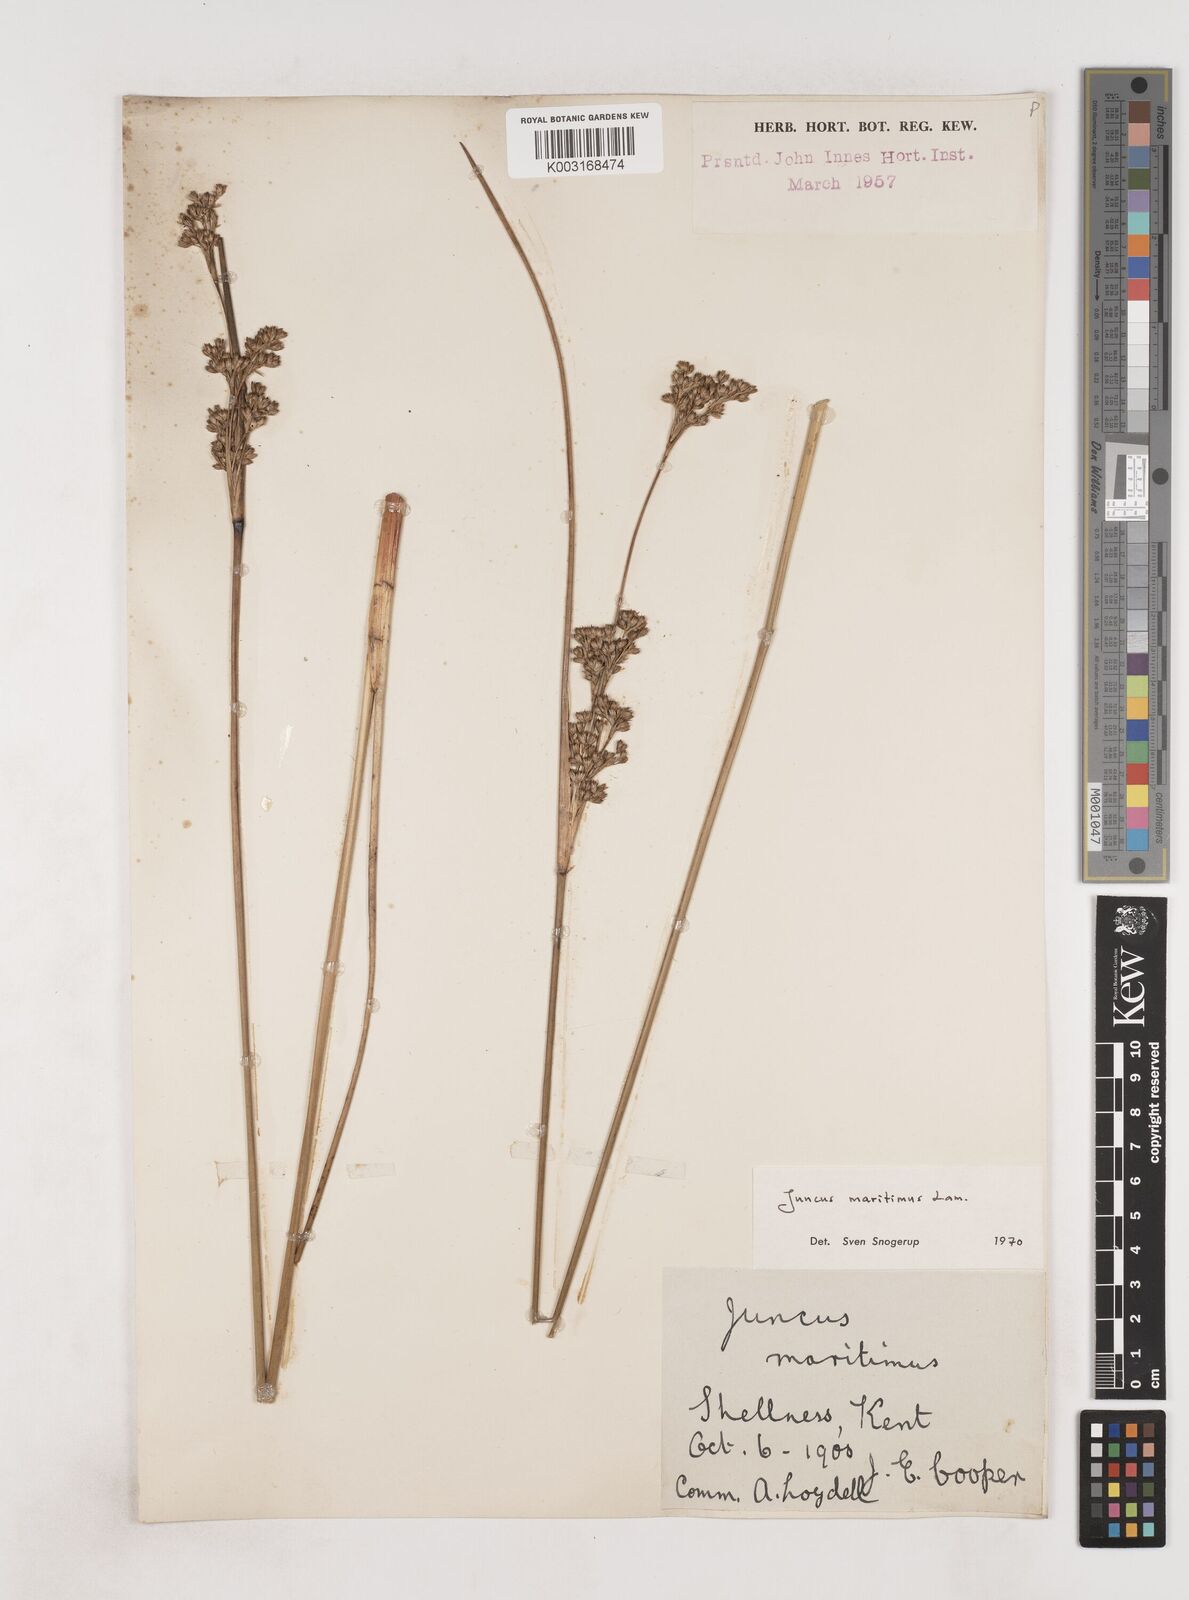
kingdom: Plantae
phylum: Tracheophyta
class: Liliopsida
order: Poales
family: Juncaceae
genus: Juncus
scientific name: Juncus maritimus
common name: Sea rush
